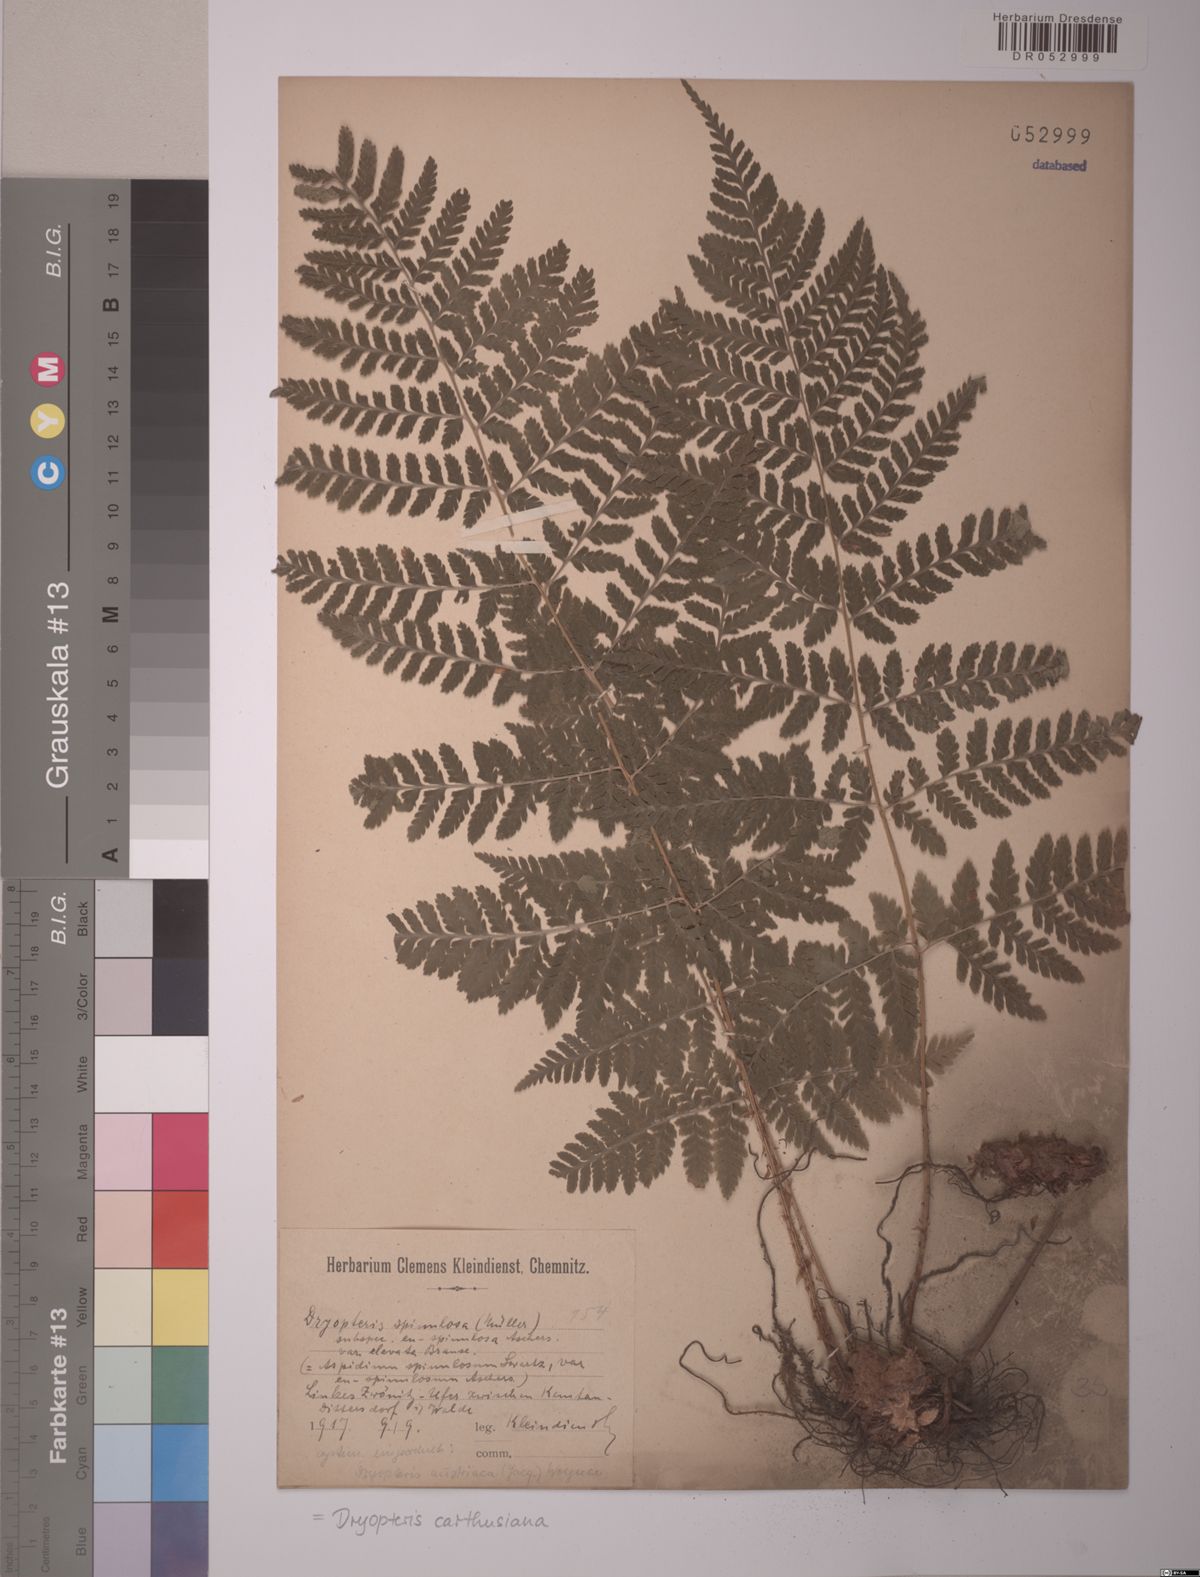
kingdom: Plantae
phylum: Tracheophyta
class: Polypodiopsida
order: Polypodiales
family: Dryopteridaceae
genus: Dryopteris
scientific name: Dryopteris carthusiana
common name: Narrow buckler-fern
